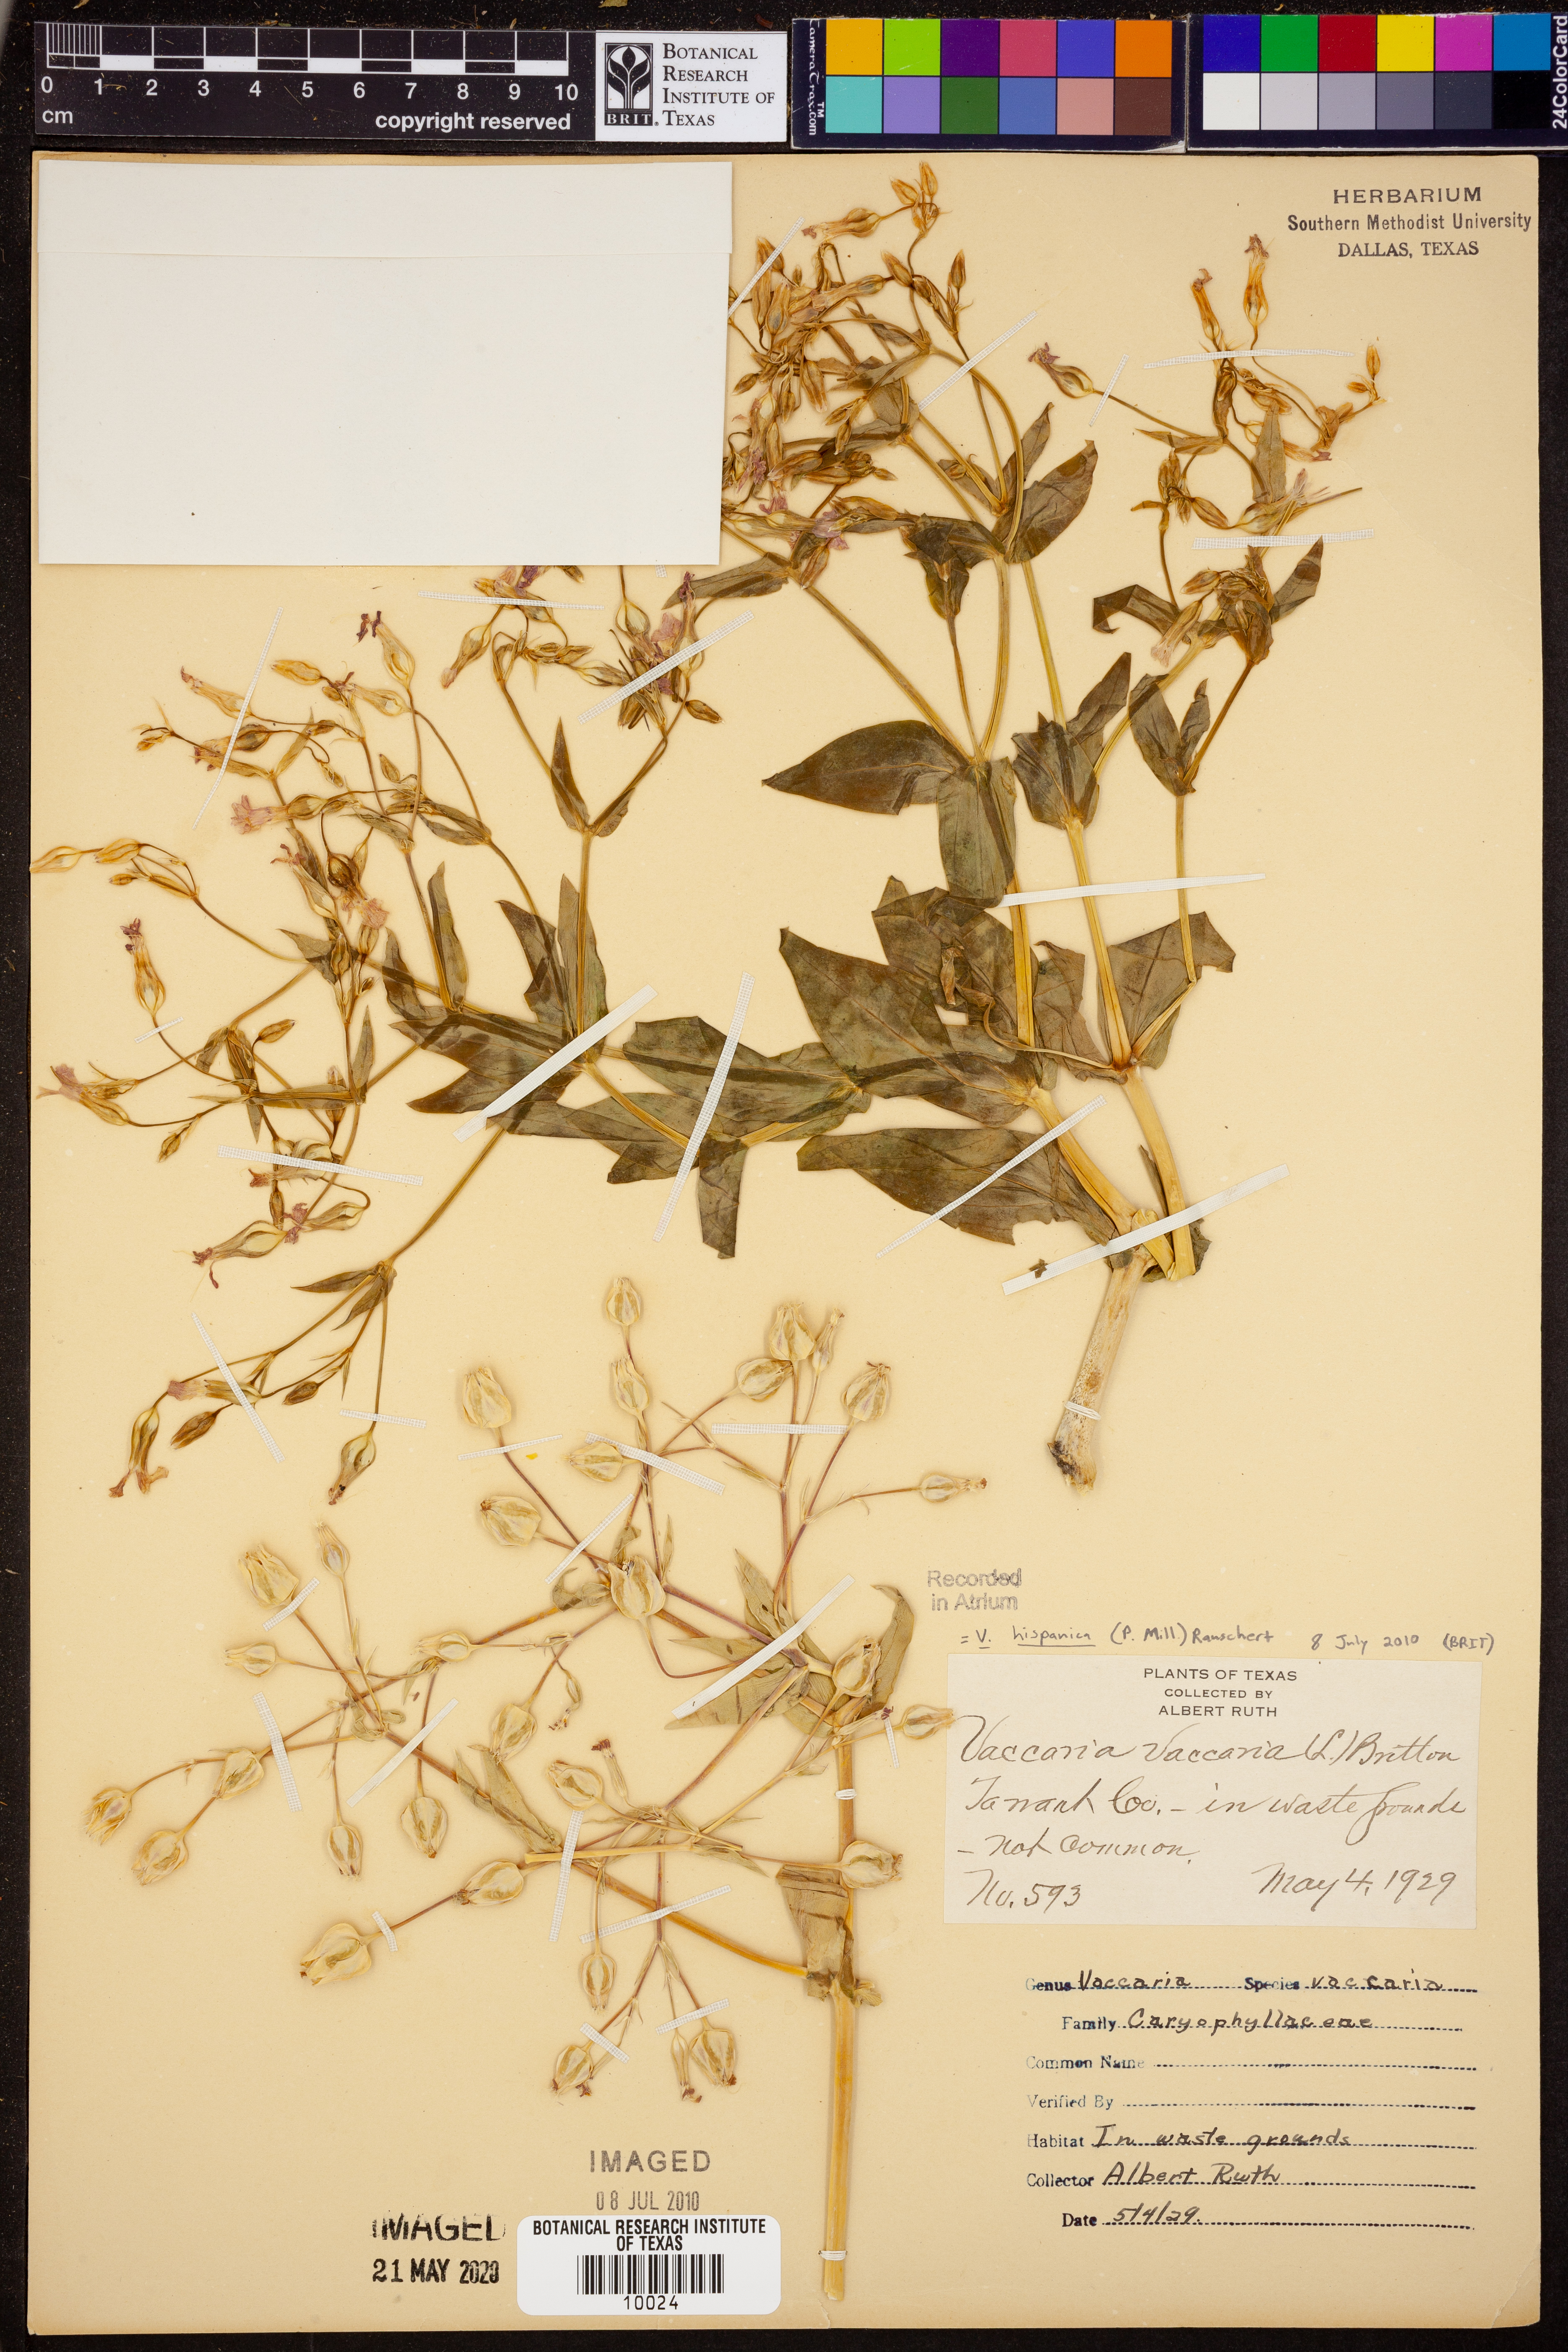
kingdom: Plantae
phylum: Tracheophyta
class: Magnoliopsida
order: Caryophyllales
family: Caryophyllaceae
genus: Gypsophila
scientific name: Gypsophila vaccaria
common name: Cow soapwort
